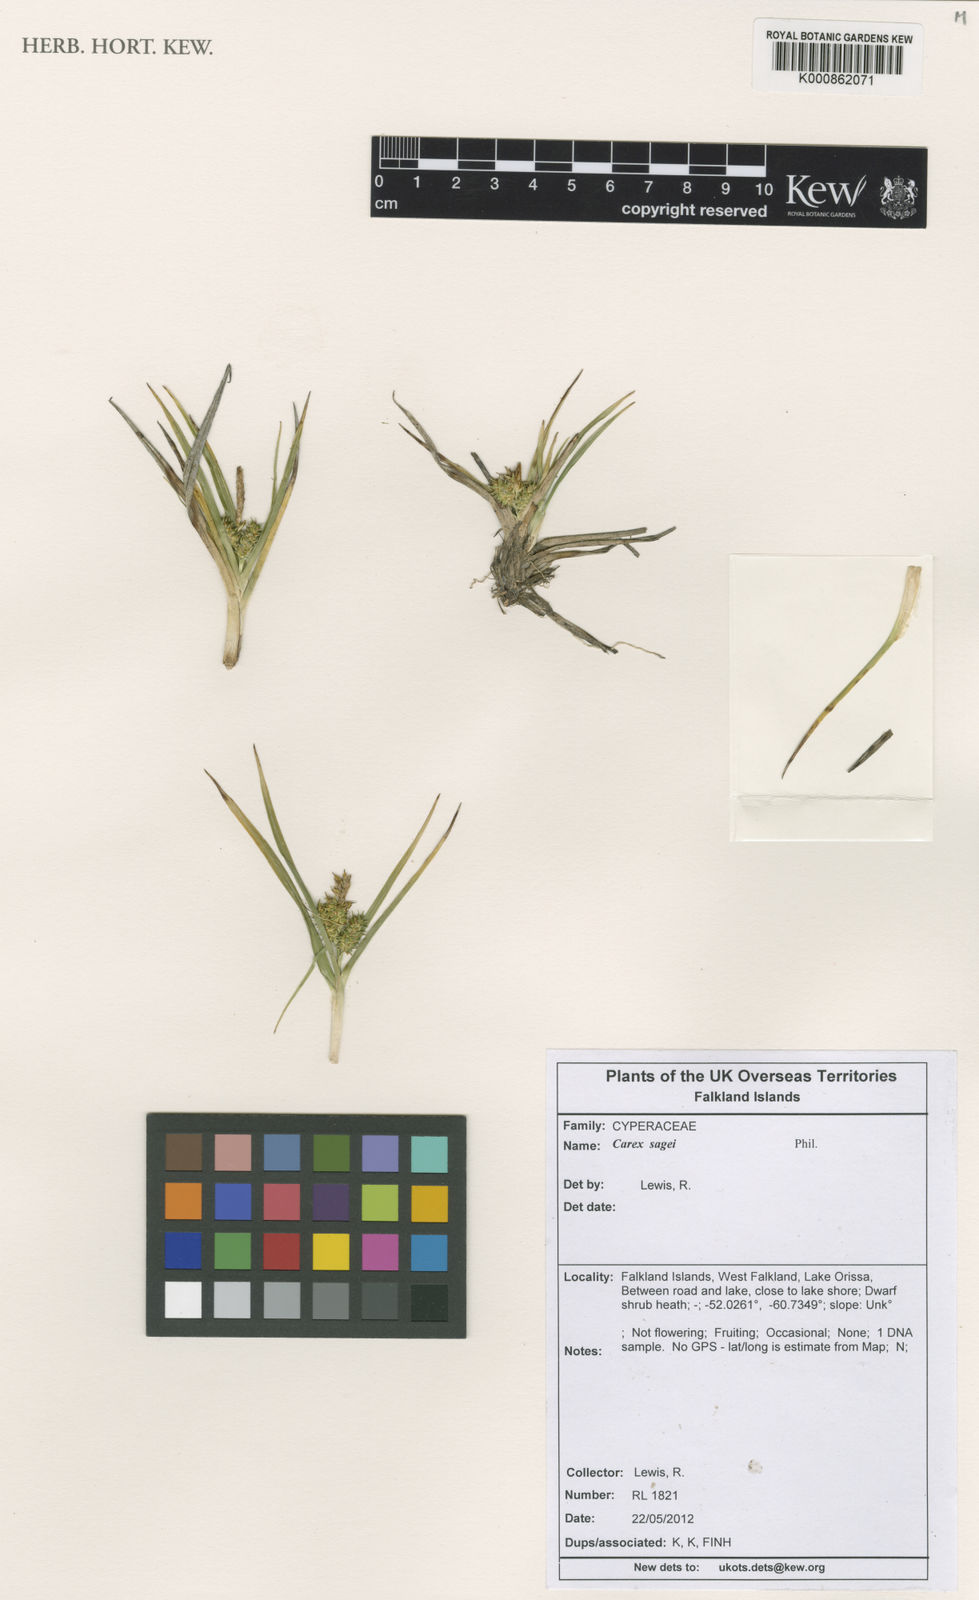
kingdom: Plantae
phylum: Tracheophyta
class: Liliopsida
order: Poales
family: Cyperaceae
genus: Carex
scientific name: Carex sagei
